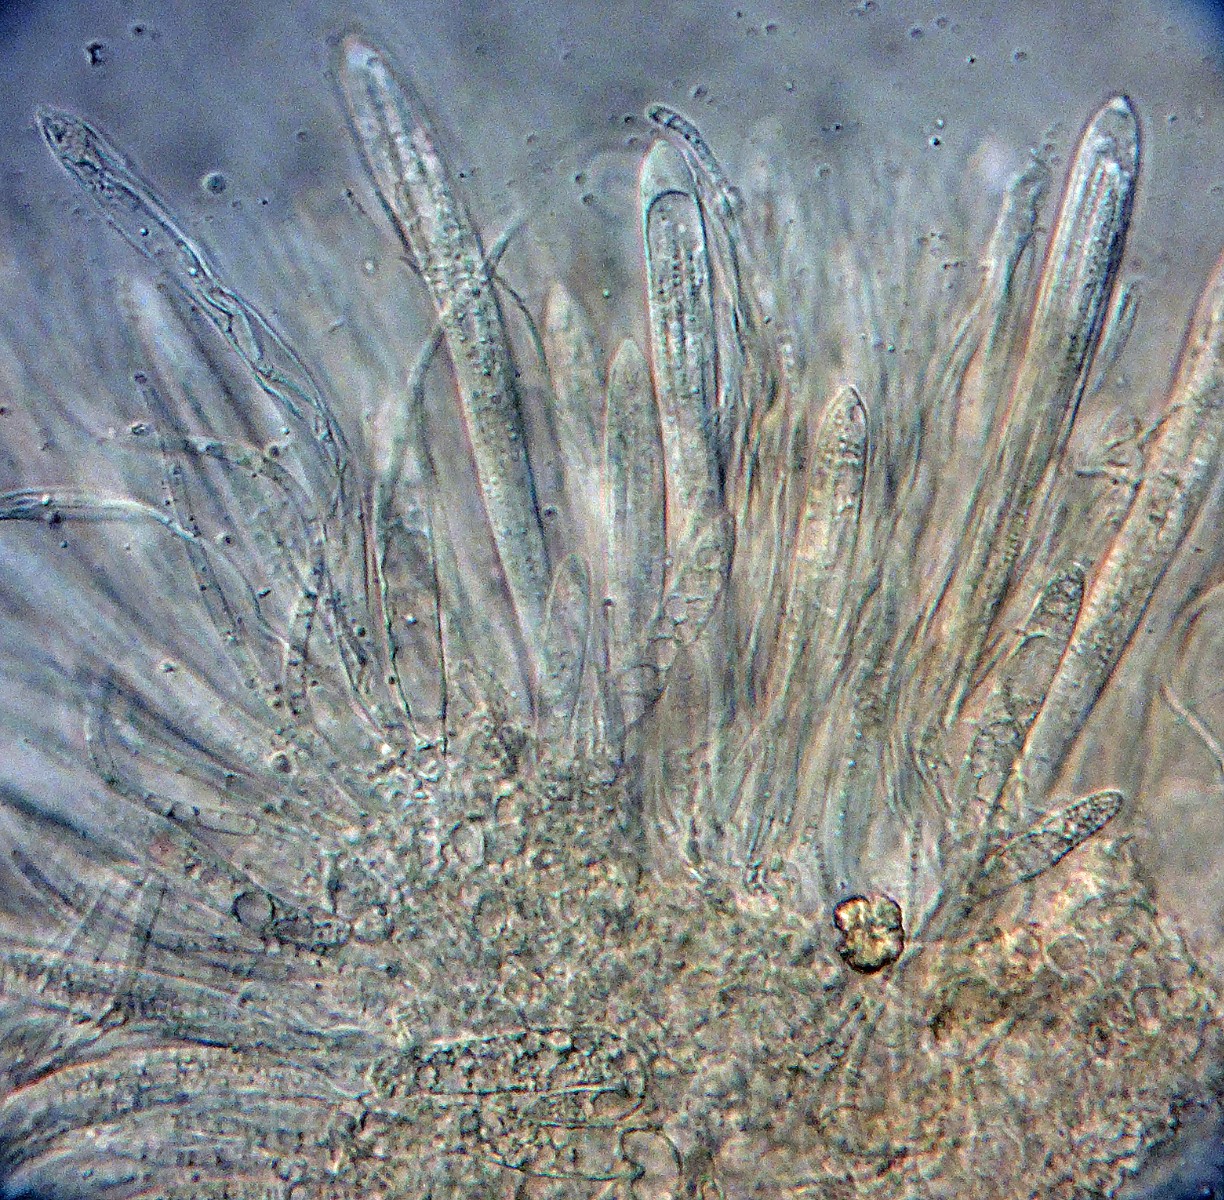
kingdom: Fungi
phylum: Ascomycota
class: Leotiomycetes
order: Rhytismatales
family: Rhytismataceae
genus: Lophodermium
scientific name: Lophodermium gramineum
